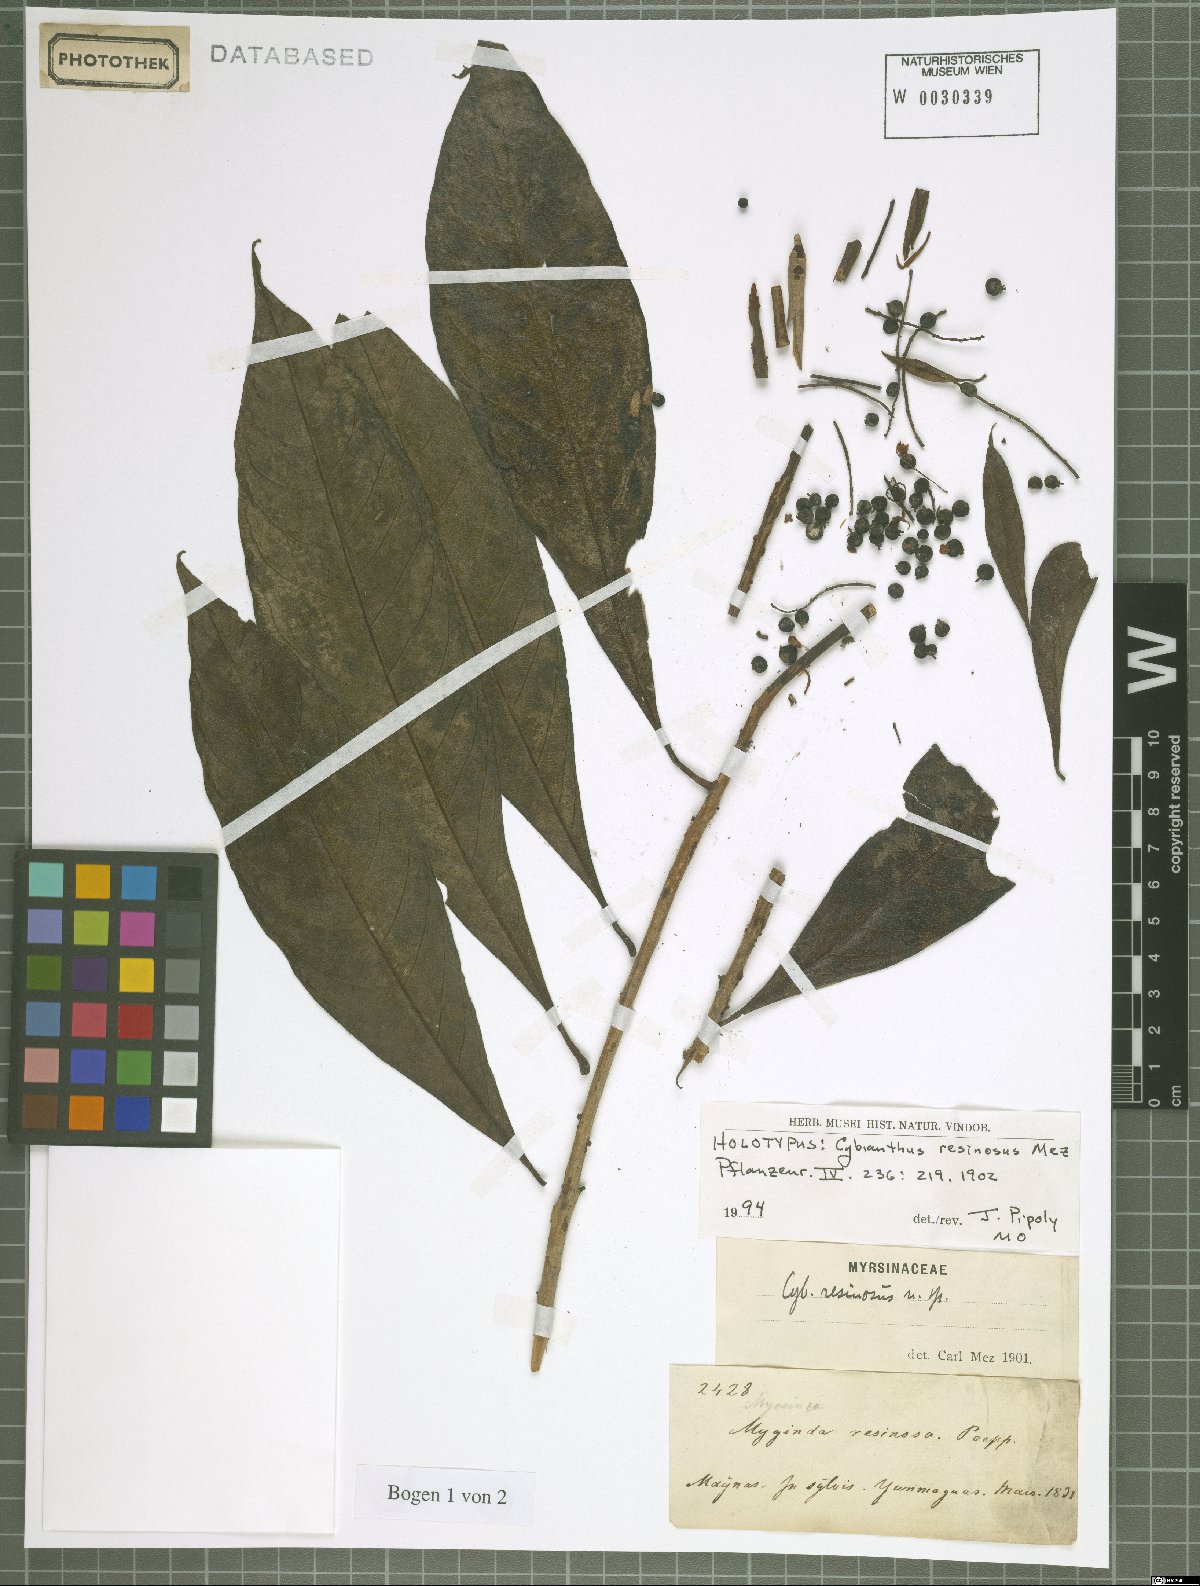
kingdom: Plantae
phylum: Tracheophyta
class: Magnoliopsida
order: Ericales
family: Primulaceae
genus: Cybianthus
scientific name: Cybianthus resinosus
